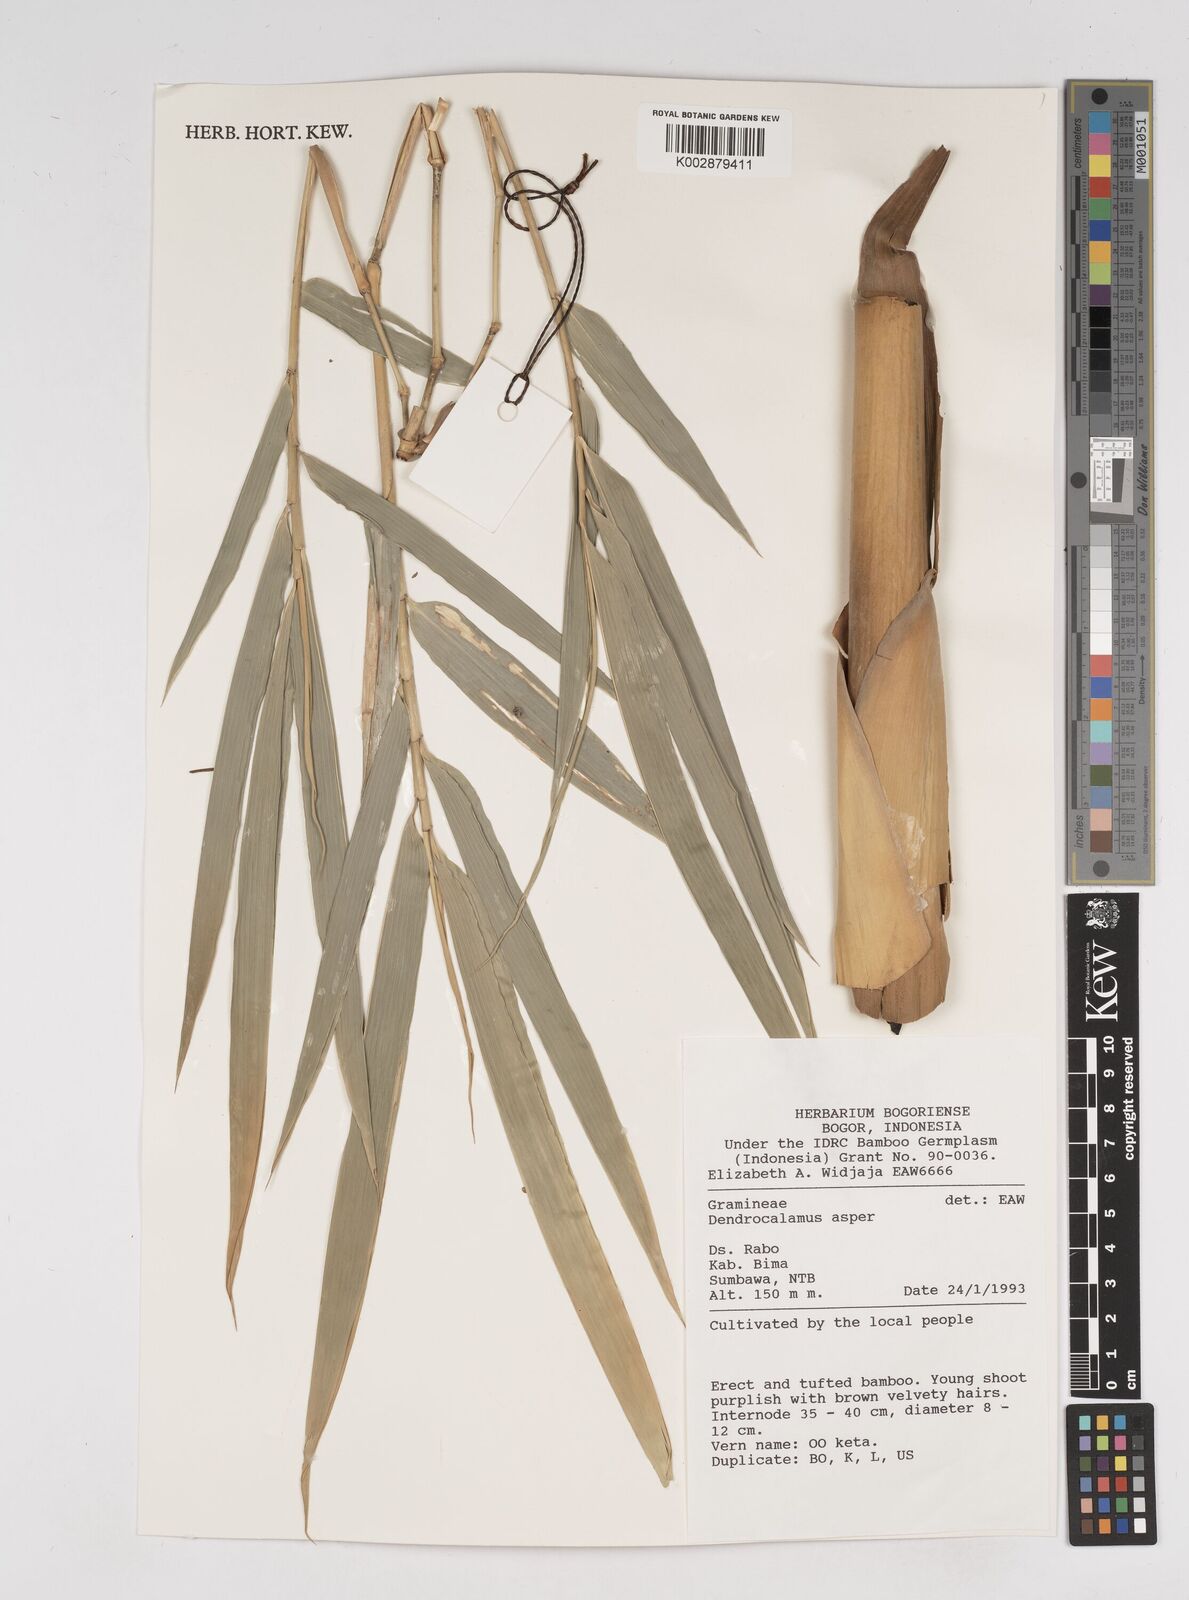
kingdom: Plantae
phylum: Tracheophyta
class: Liliopsida
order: Poales
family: Poaceae
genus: Dendrocalamus
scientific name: Dendrocalamus asper
